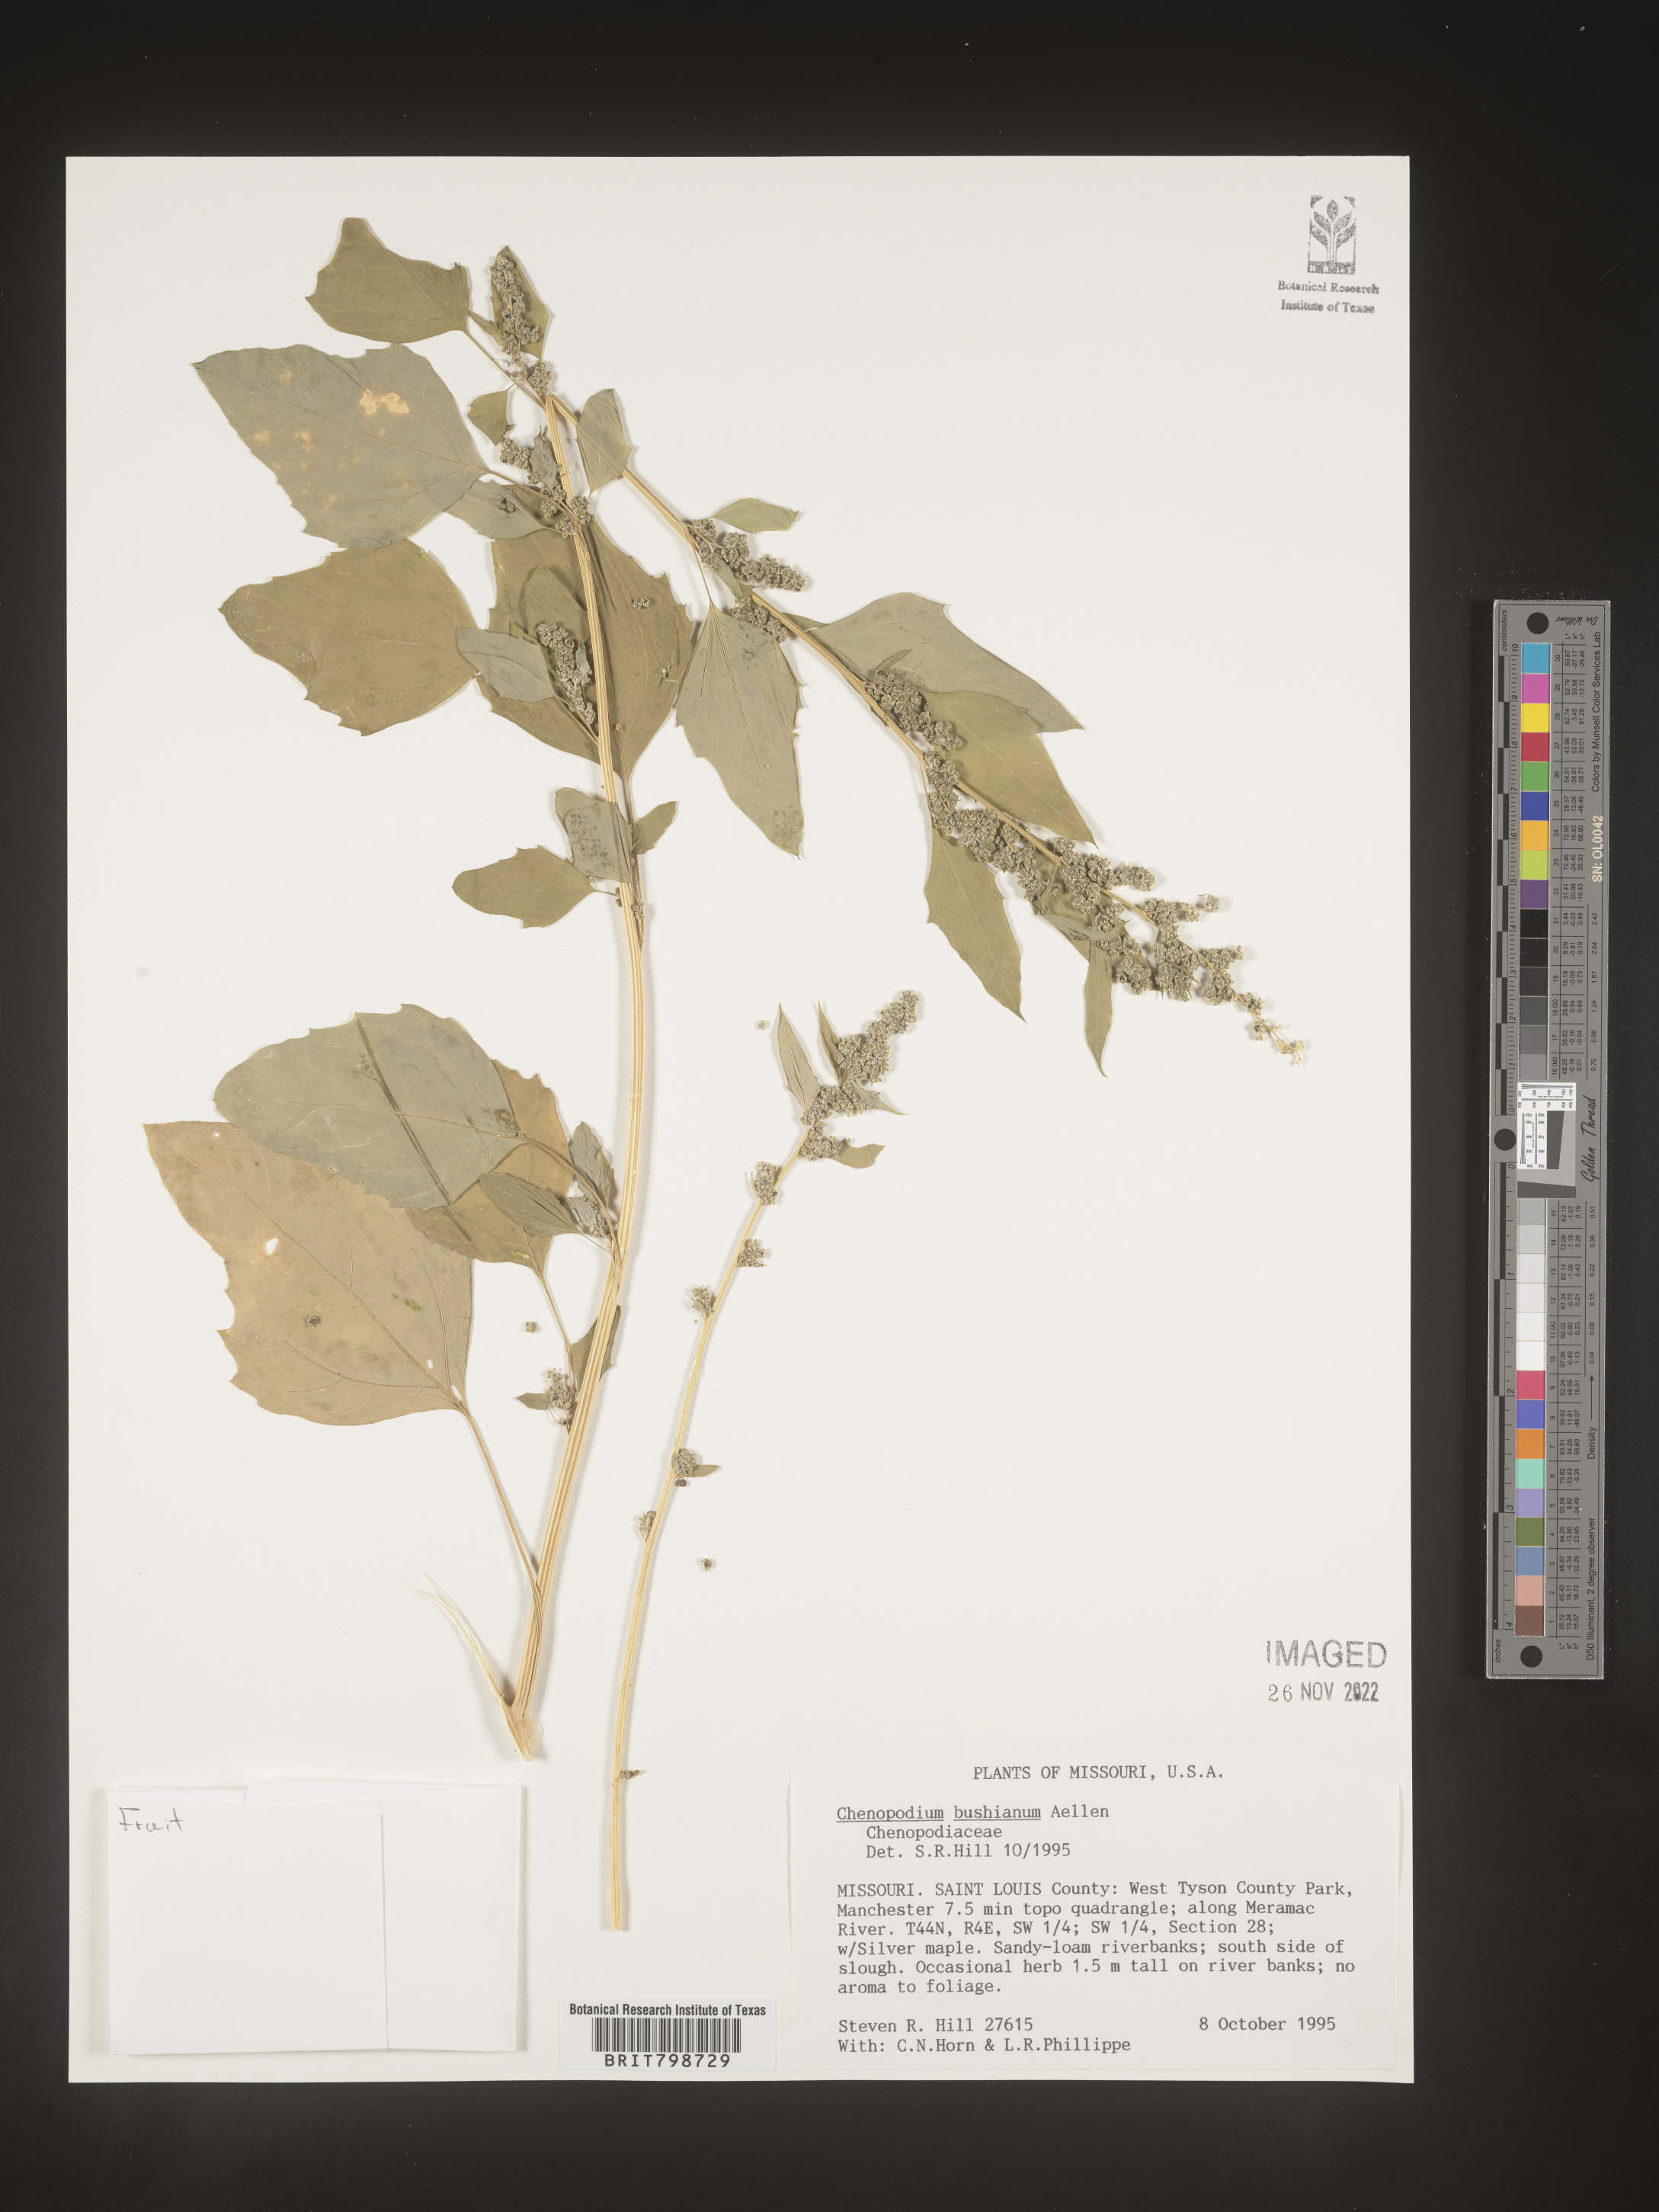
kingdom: Plantae
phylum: Tracheophyta
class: Magnoliopsida
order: Caryophyllales
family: Amaranthaceae
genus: Chenopodium
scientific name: Chenopodium berlandieri
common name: Pit-seed goosefoot
